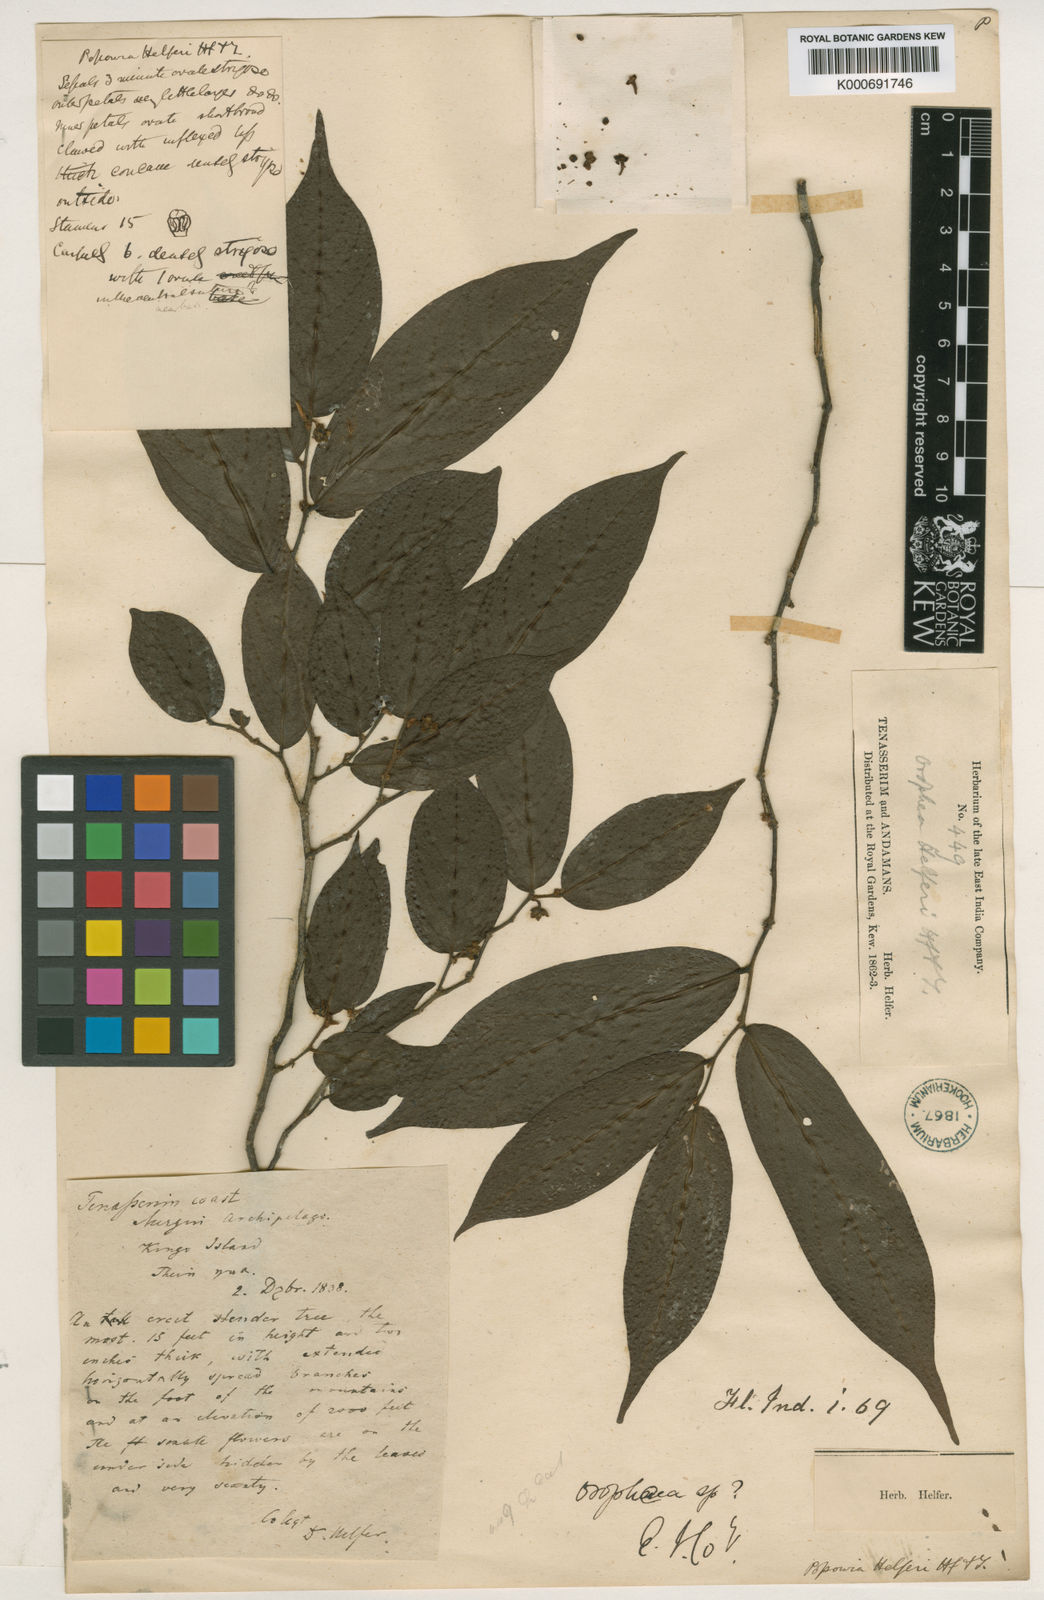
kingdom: Plantae
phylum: Tracheophyta
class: Magnoliopsida
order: Magnoliales
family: Annonaceae
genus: Popowia
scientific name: Popowia helferi
